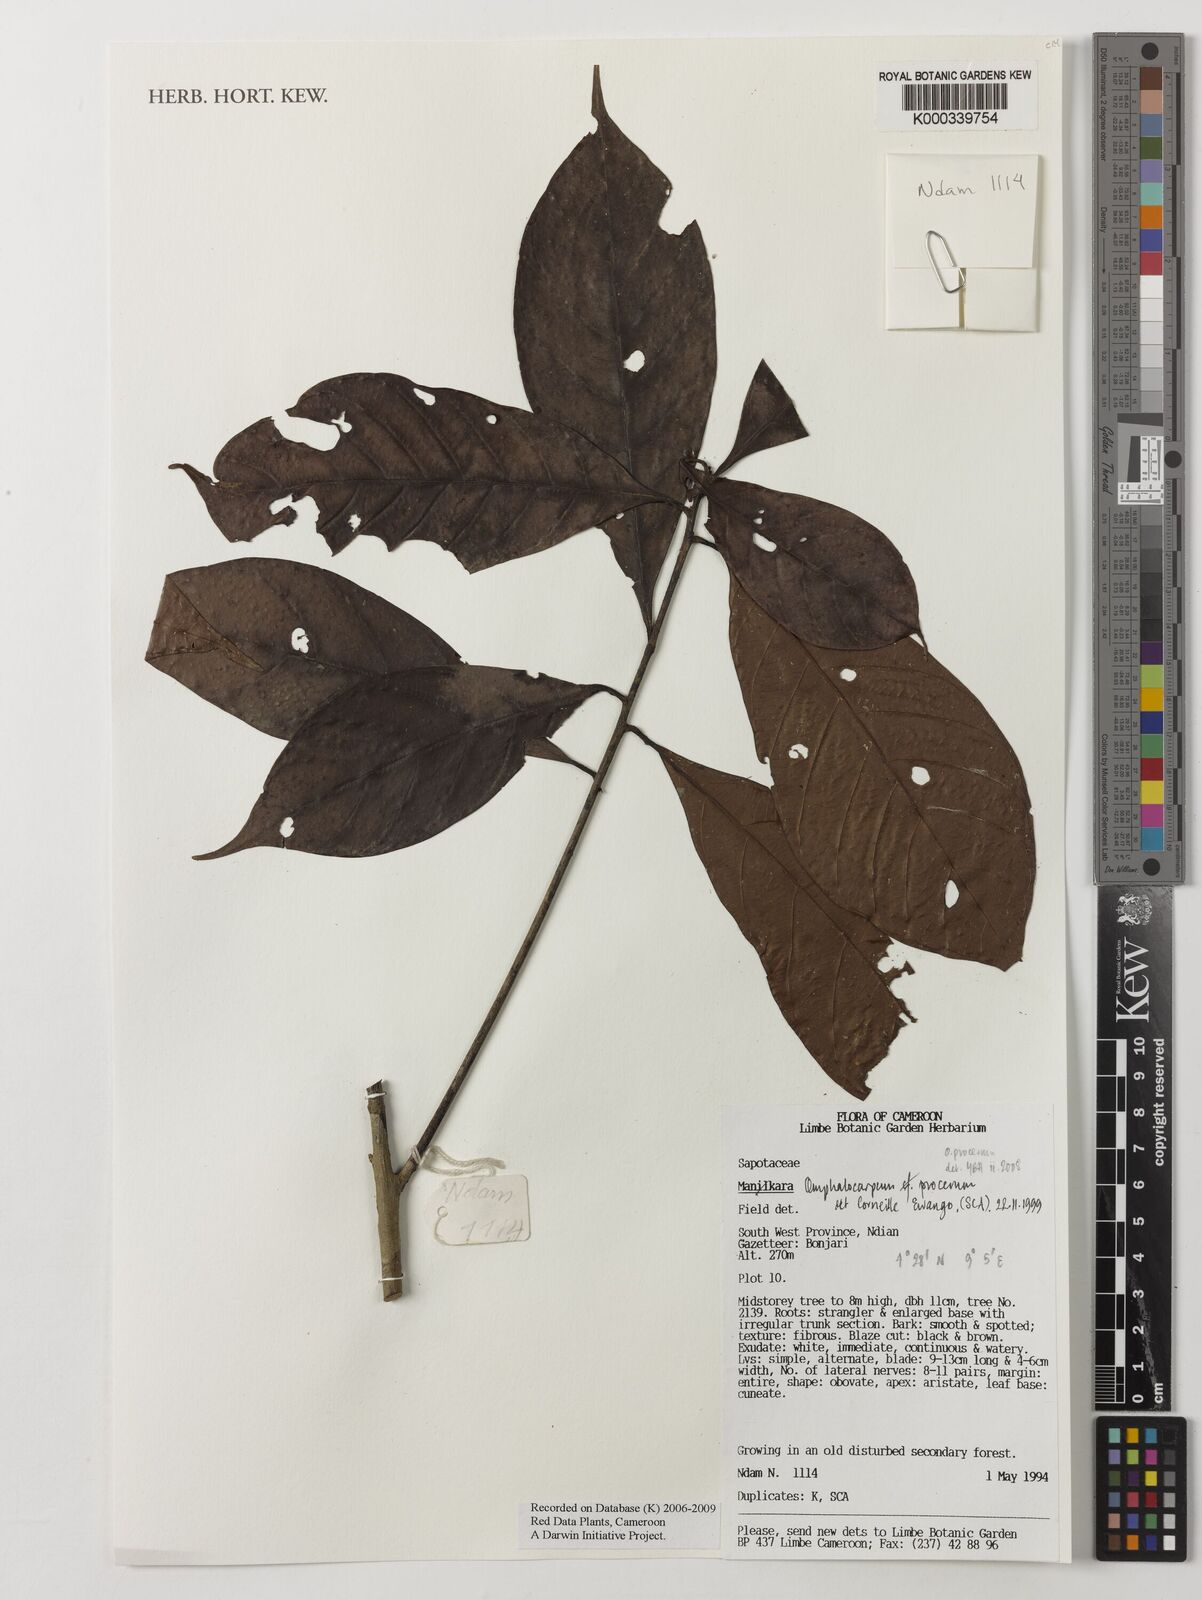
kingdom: Plantae
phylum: Tracheophyta
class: Magnoliopsida
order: Ericales
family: Sapotaceae
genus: Omphalocarpum
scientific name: Omphalocarpum procerum
